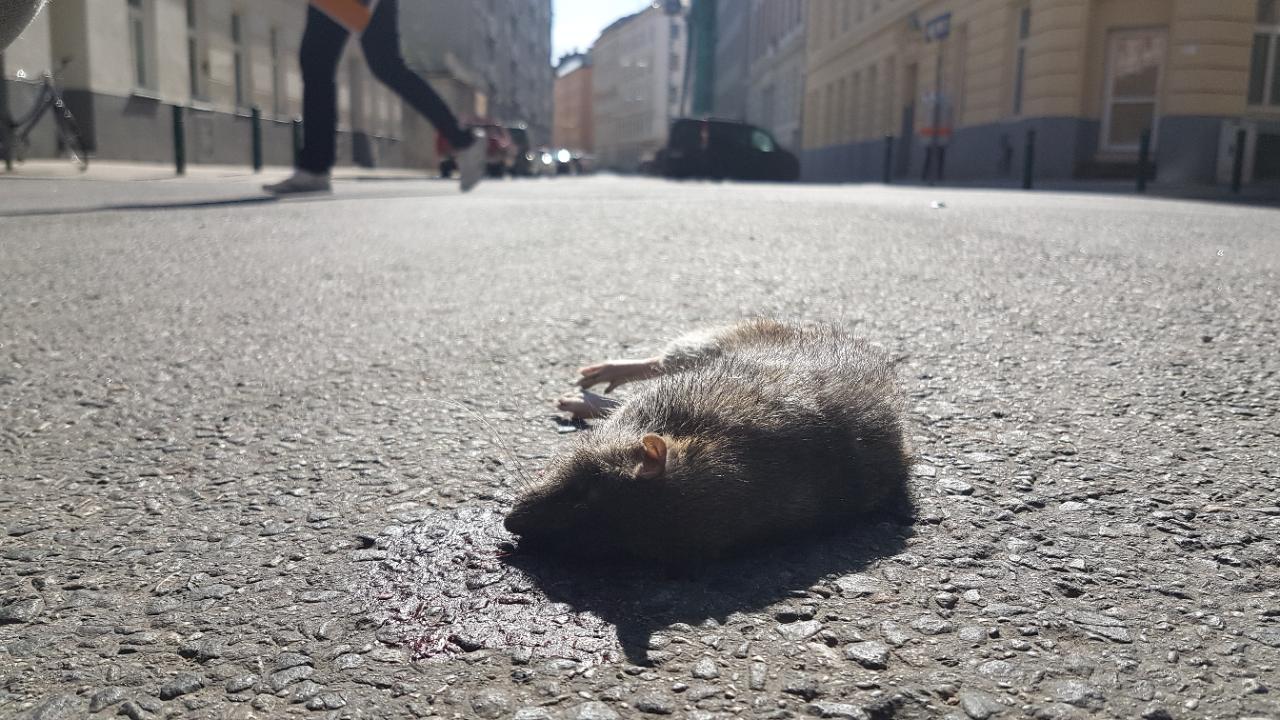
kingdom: Animalia
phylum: Chordata
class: Mammalia
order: Rodentia
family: Muridae
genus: Rattus
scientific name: Rattus norvegicus
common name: Brown rat
